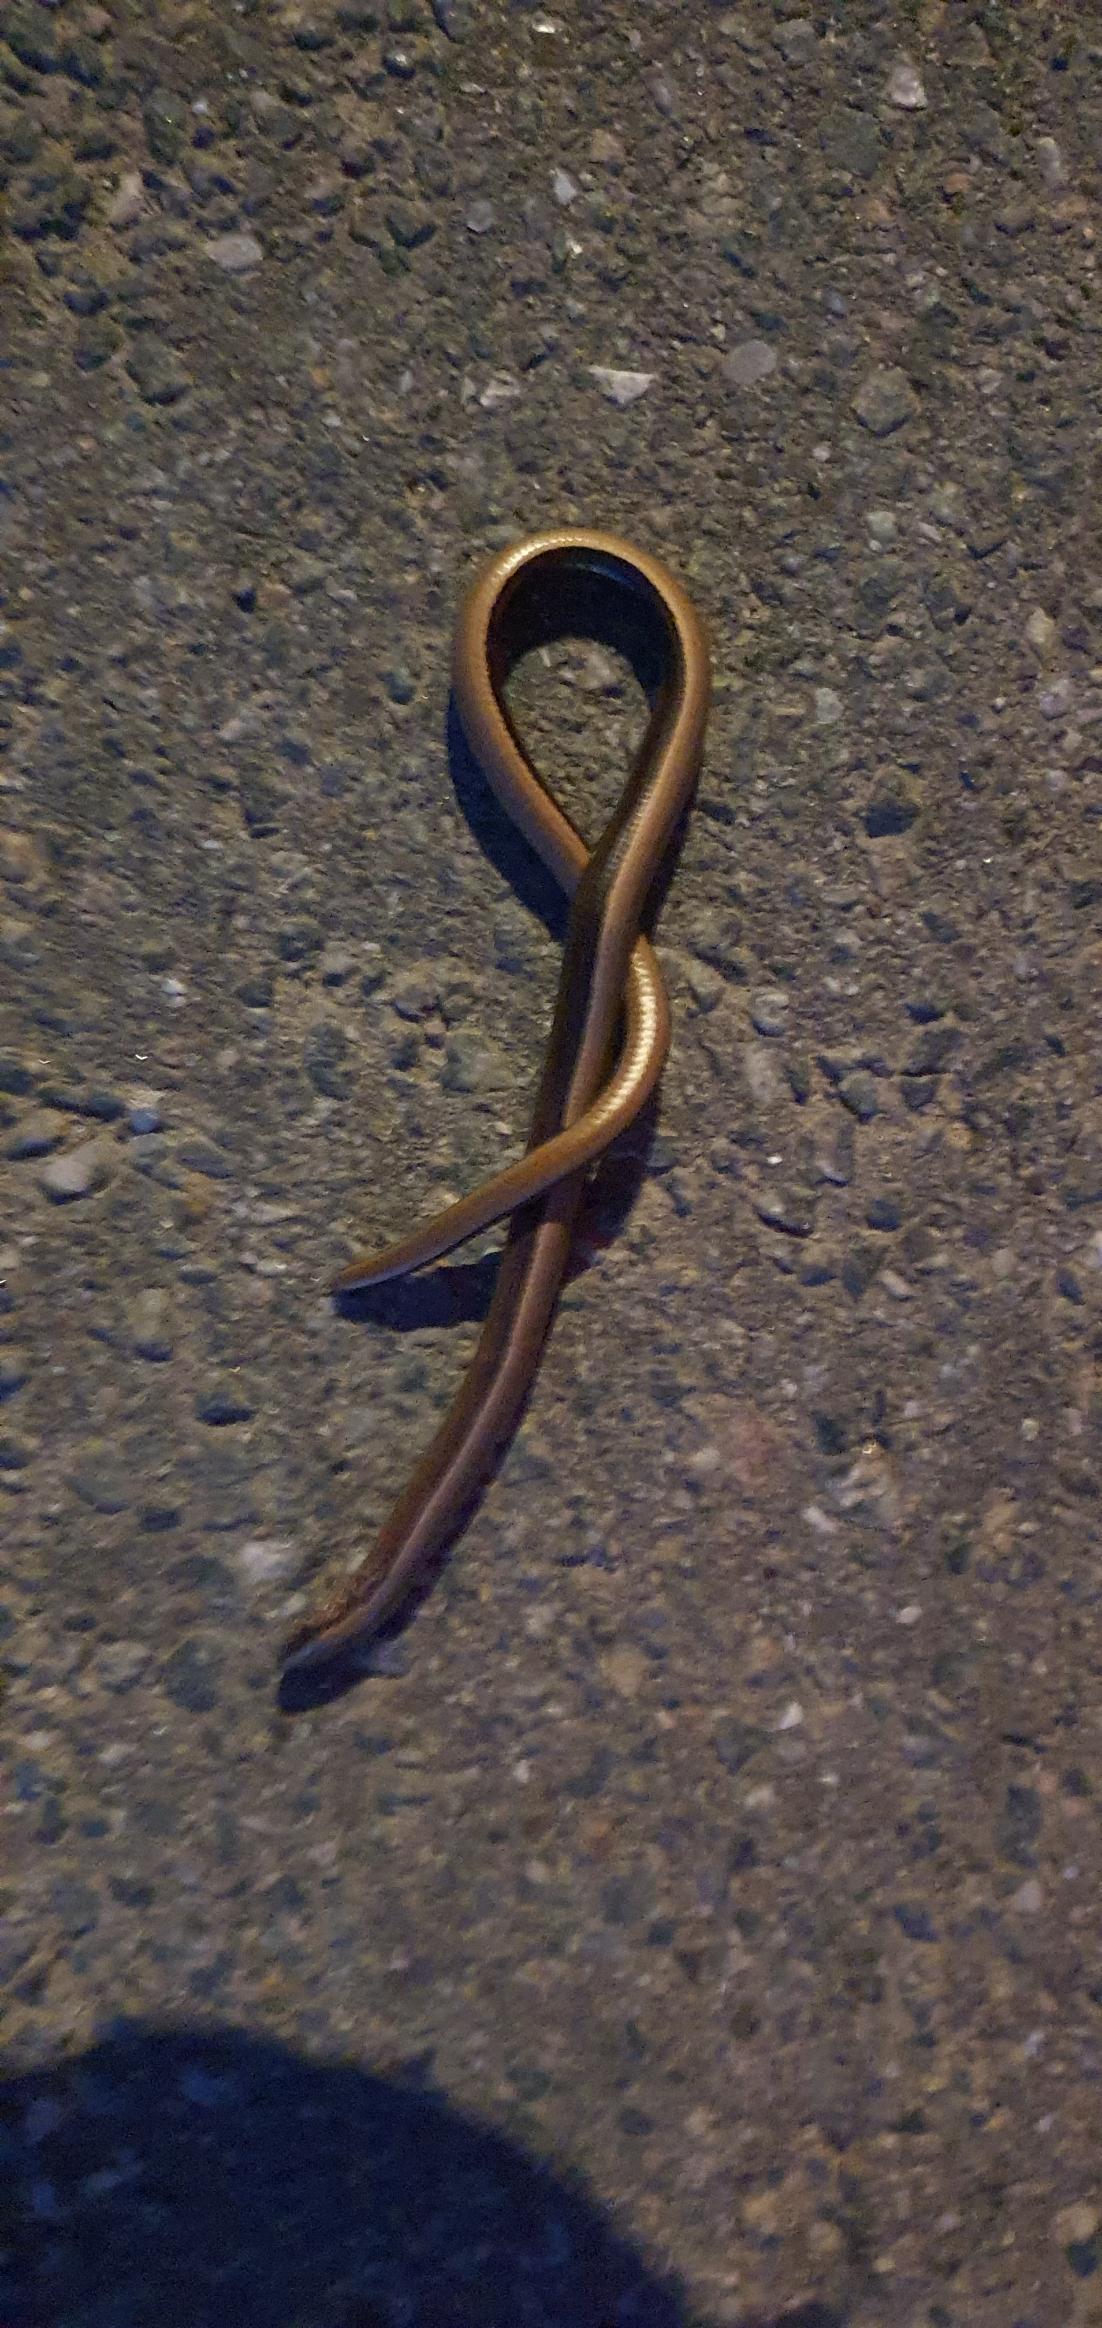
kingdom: Animalia
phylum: Chordata
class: Squamata
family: Anguidae
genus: Anguis
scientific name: Anguis fragilis
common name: Stålorm
